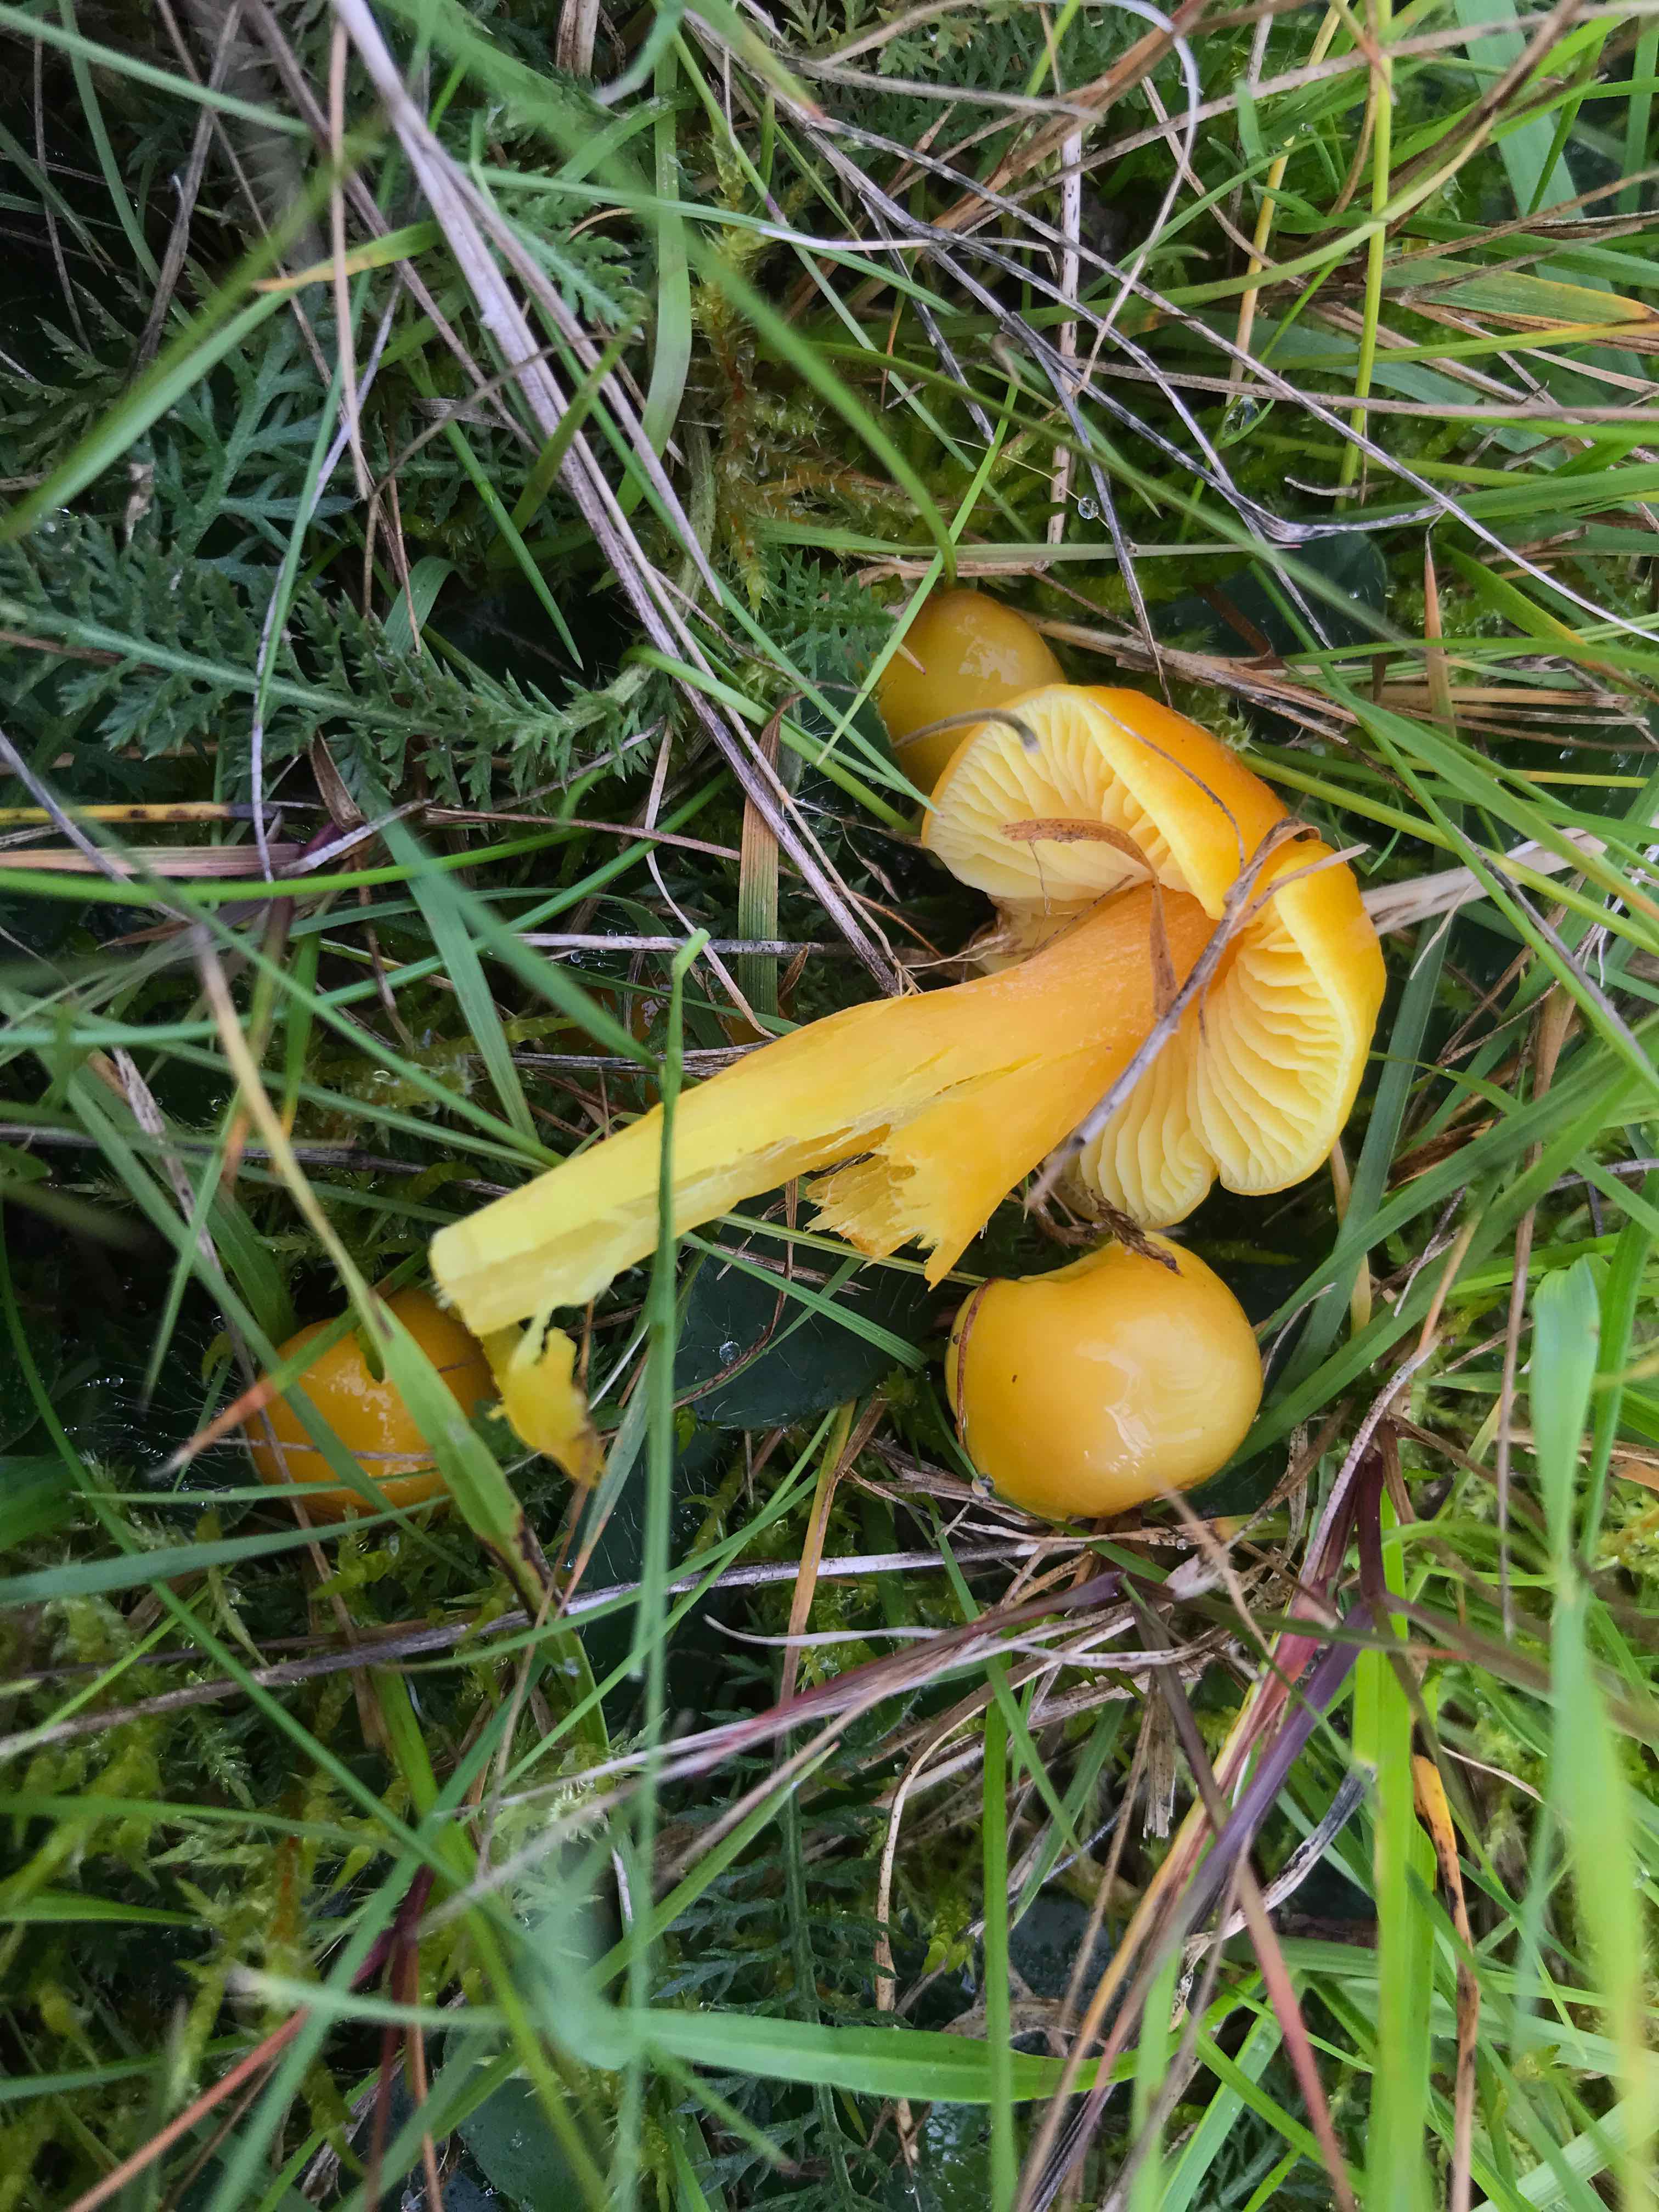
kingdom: Fungi
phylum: Basidiomycota
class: Agaricomycetes
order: Agaricales
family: Hygrophoraceae
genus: Hygrocybe
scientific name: Hygrocybe chlorophana
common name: gul vokshat
